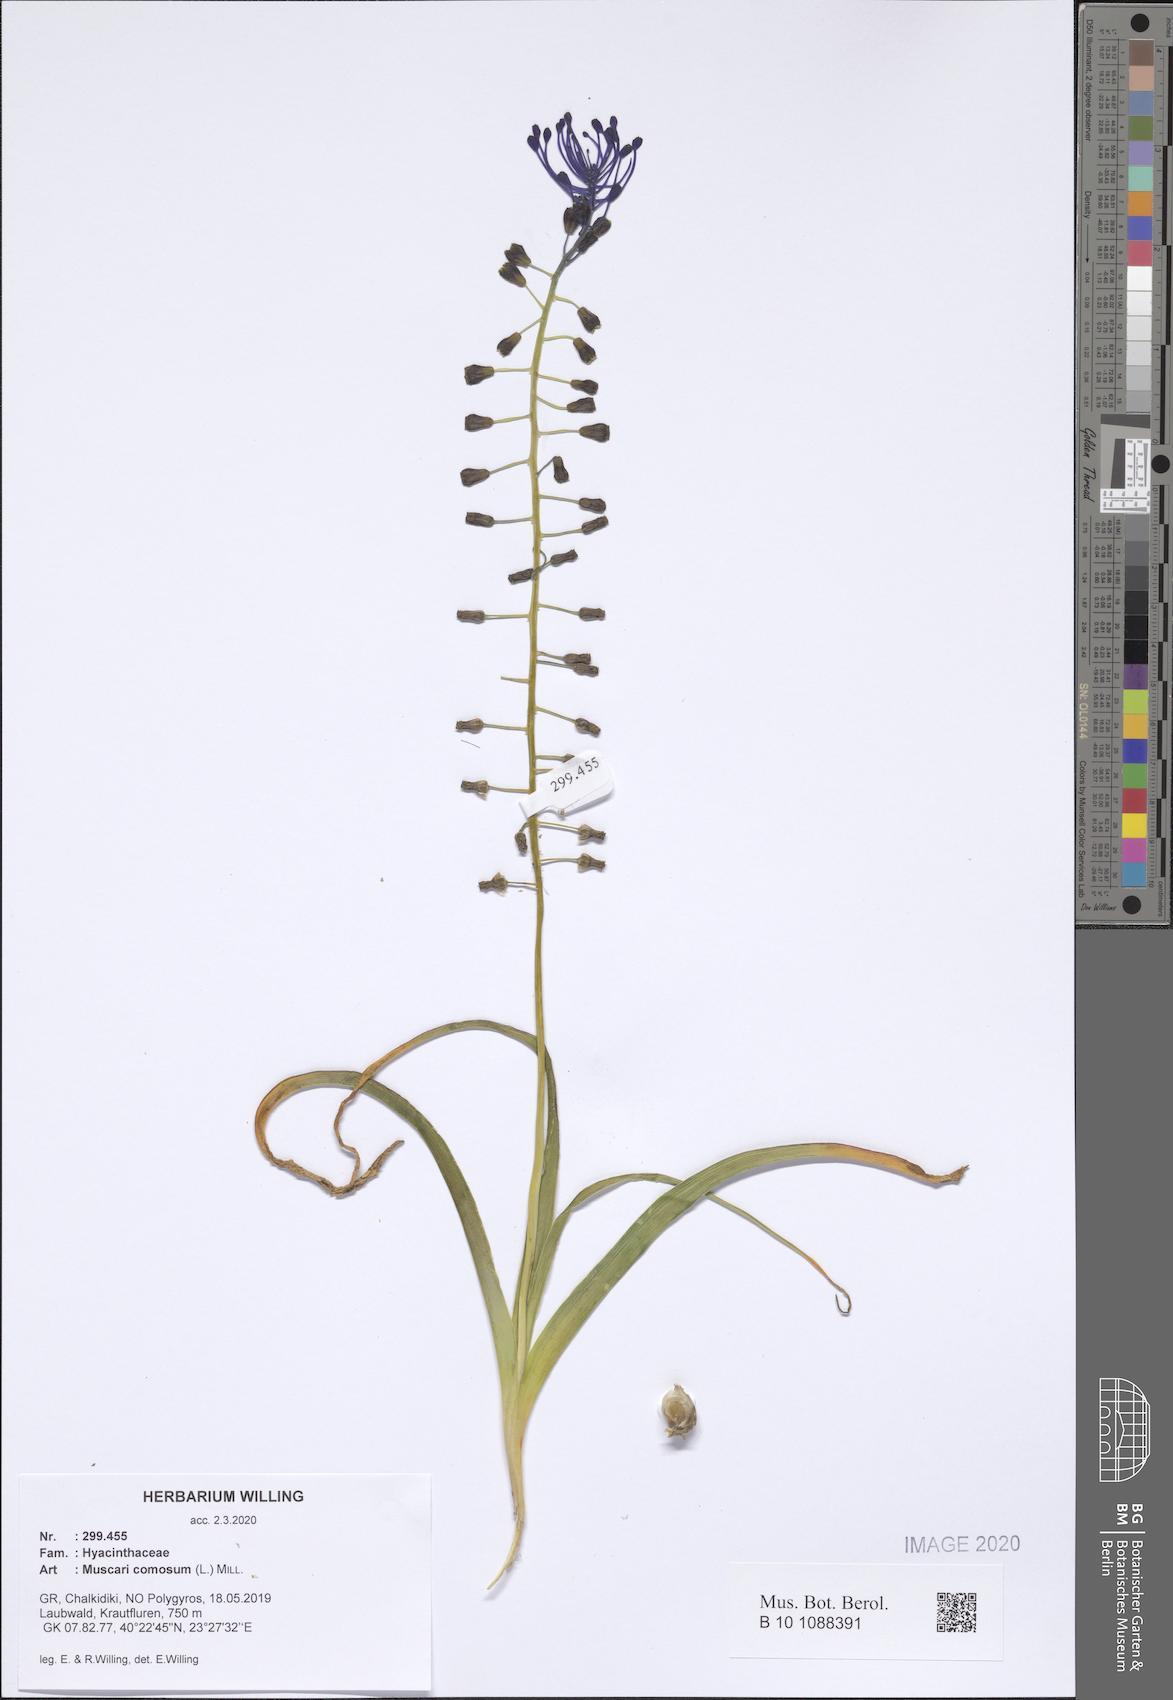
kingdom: Plantae
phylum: Tracheophyta
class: Liliopsida
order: Asparagales
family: Asparagaceae
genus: Muscari
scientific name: Muscari comosum
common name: Tassel hyacinth
